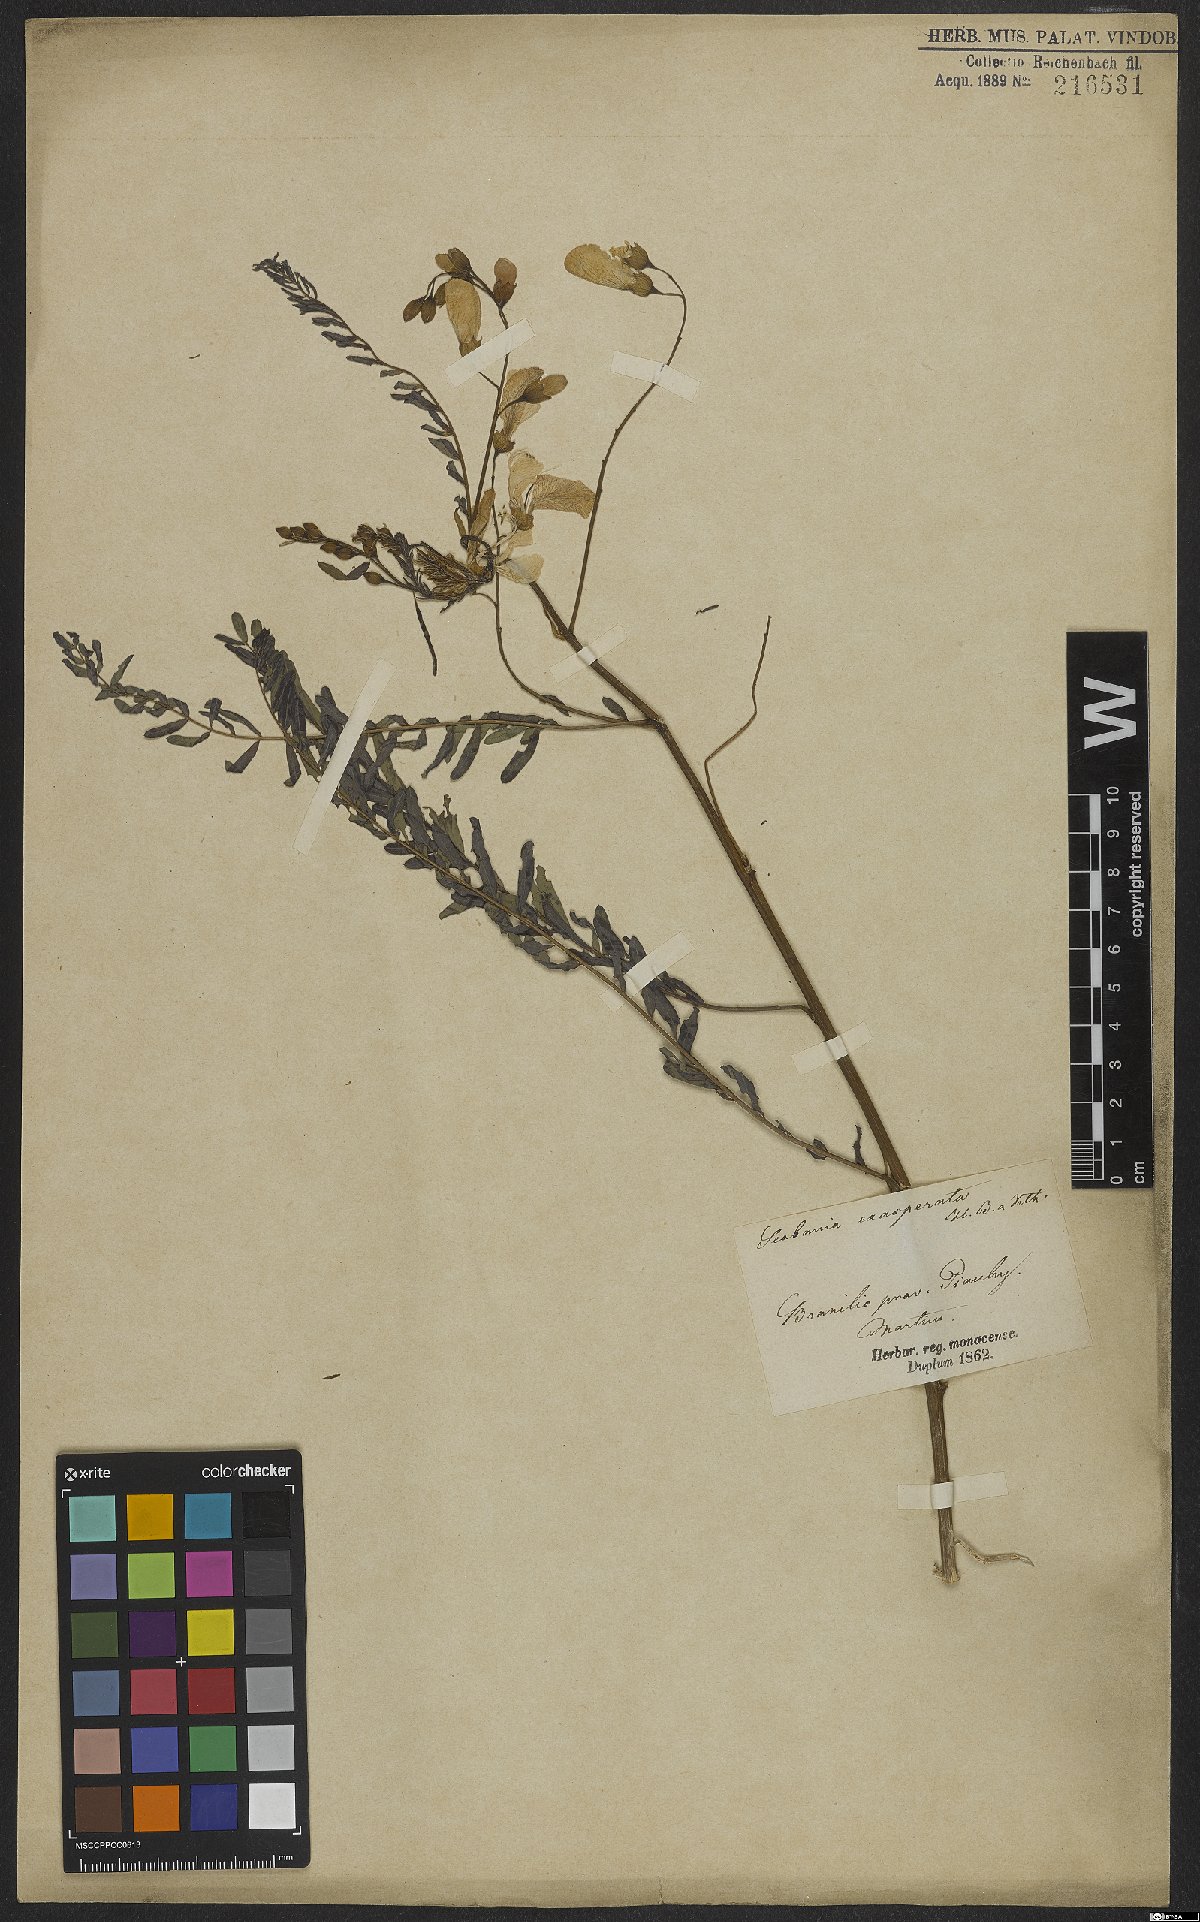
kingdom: Plantae
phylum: Tracheophyta
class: Magnoliopsida
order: Fabales
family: Fabaceae
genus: Sesbania
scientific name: Sesbania exasperata
